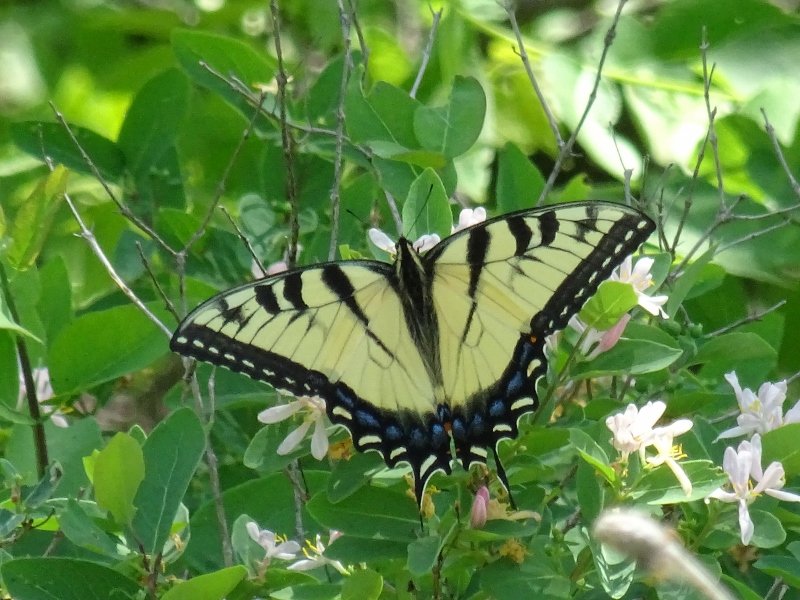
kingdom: Animalia
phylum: Arthropoda
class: Insecta
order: Lepidoptera
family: Papilionidae
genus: Pterourus
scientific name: Pterourus glaucus
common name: Eastern Tiger Swallowtail
